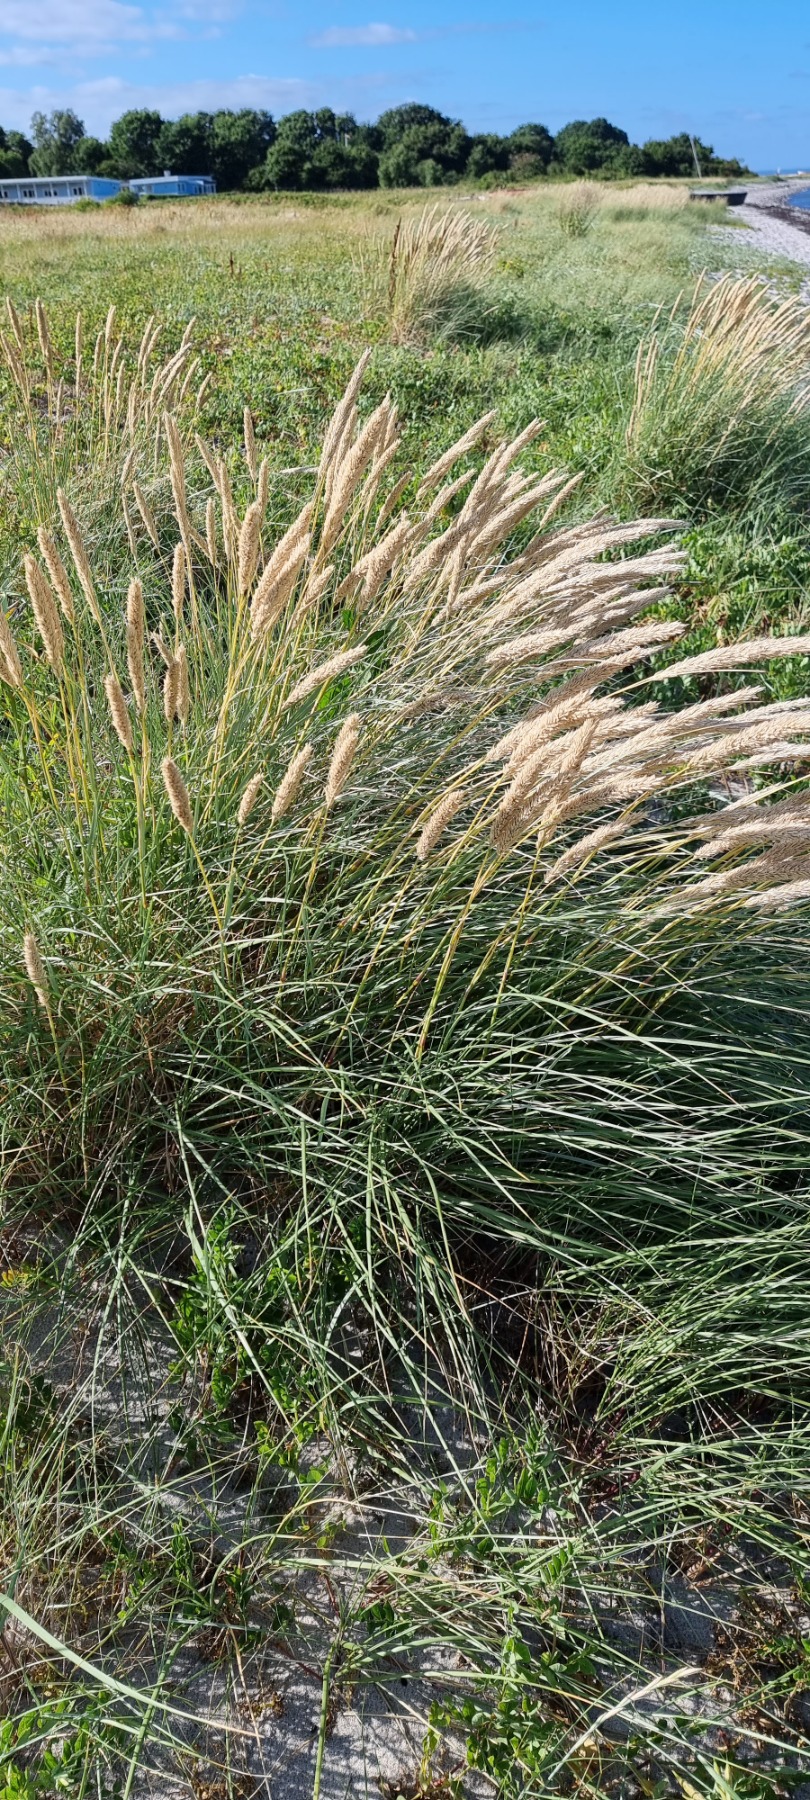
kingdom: Plantae
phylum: Tracheophyta
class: Liliopsida
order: Poales
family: Poaceae
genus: Calamagrostis
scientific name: Calamagrostis arenaria
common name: Sand-hjælme
